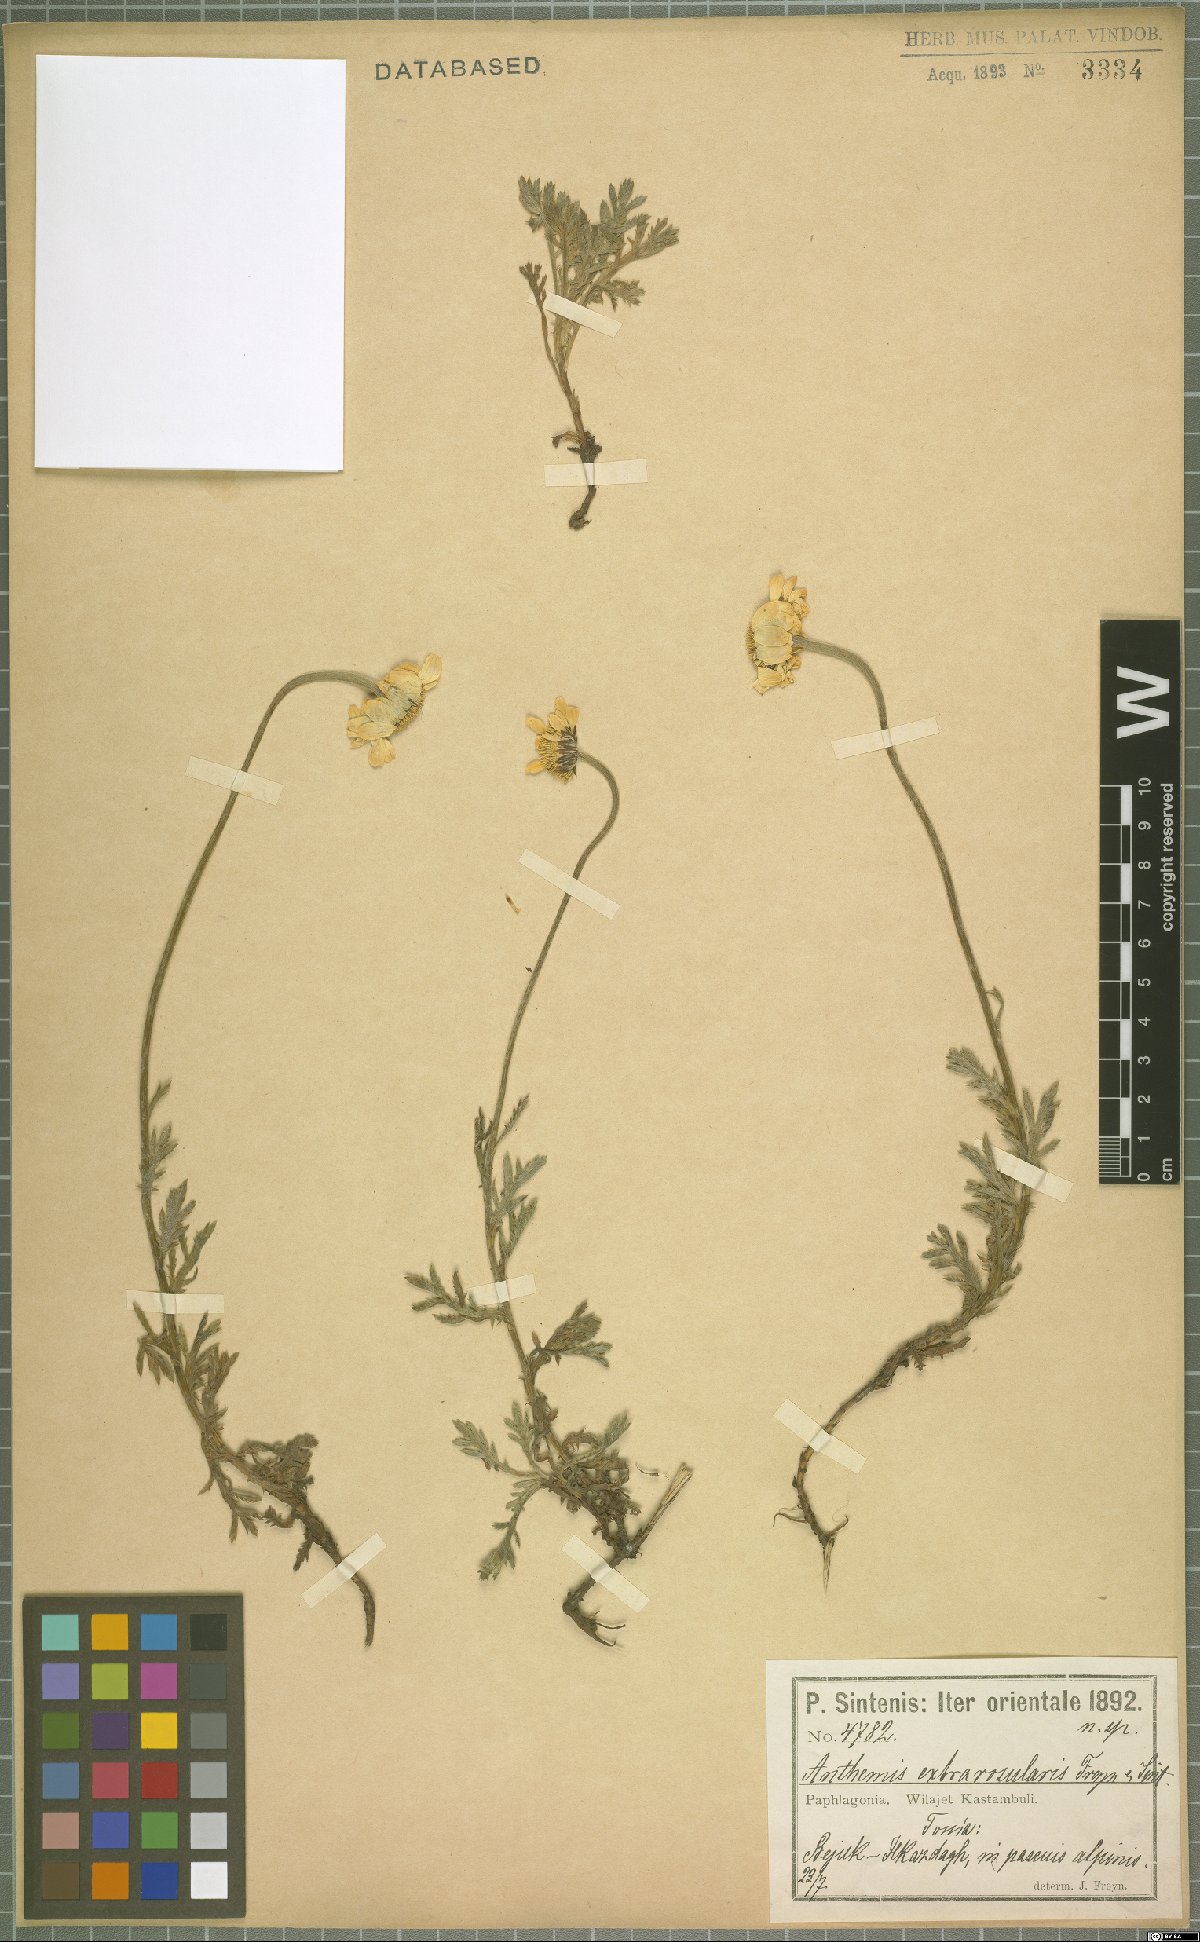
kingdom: Plantae
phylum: Tracheophyta
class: Magnoliopsida
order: Asterales
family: Asteraceae
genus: Cota
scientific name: Cota melanoloma
